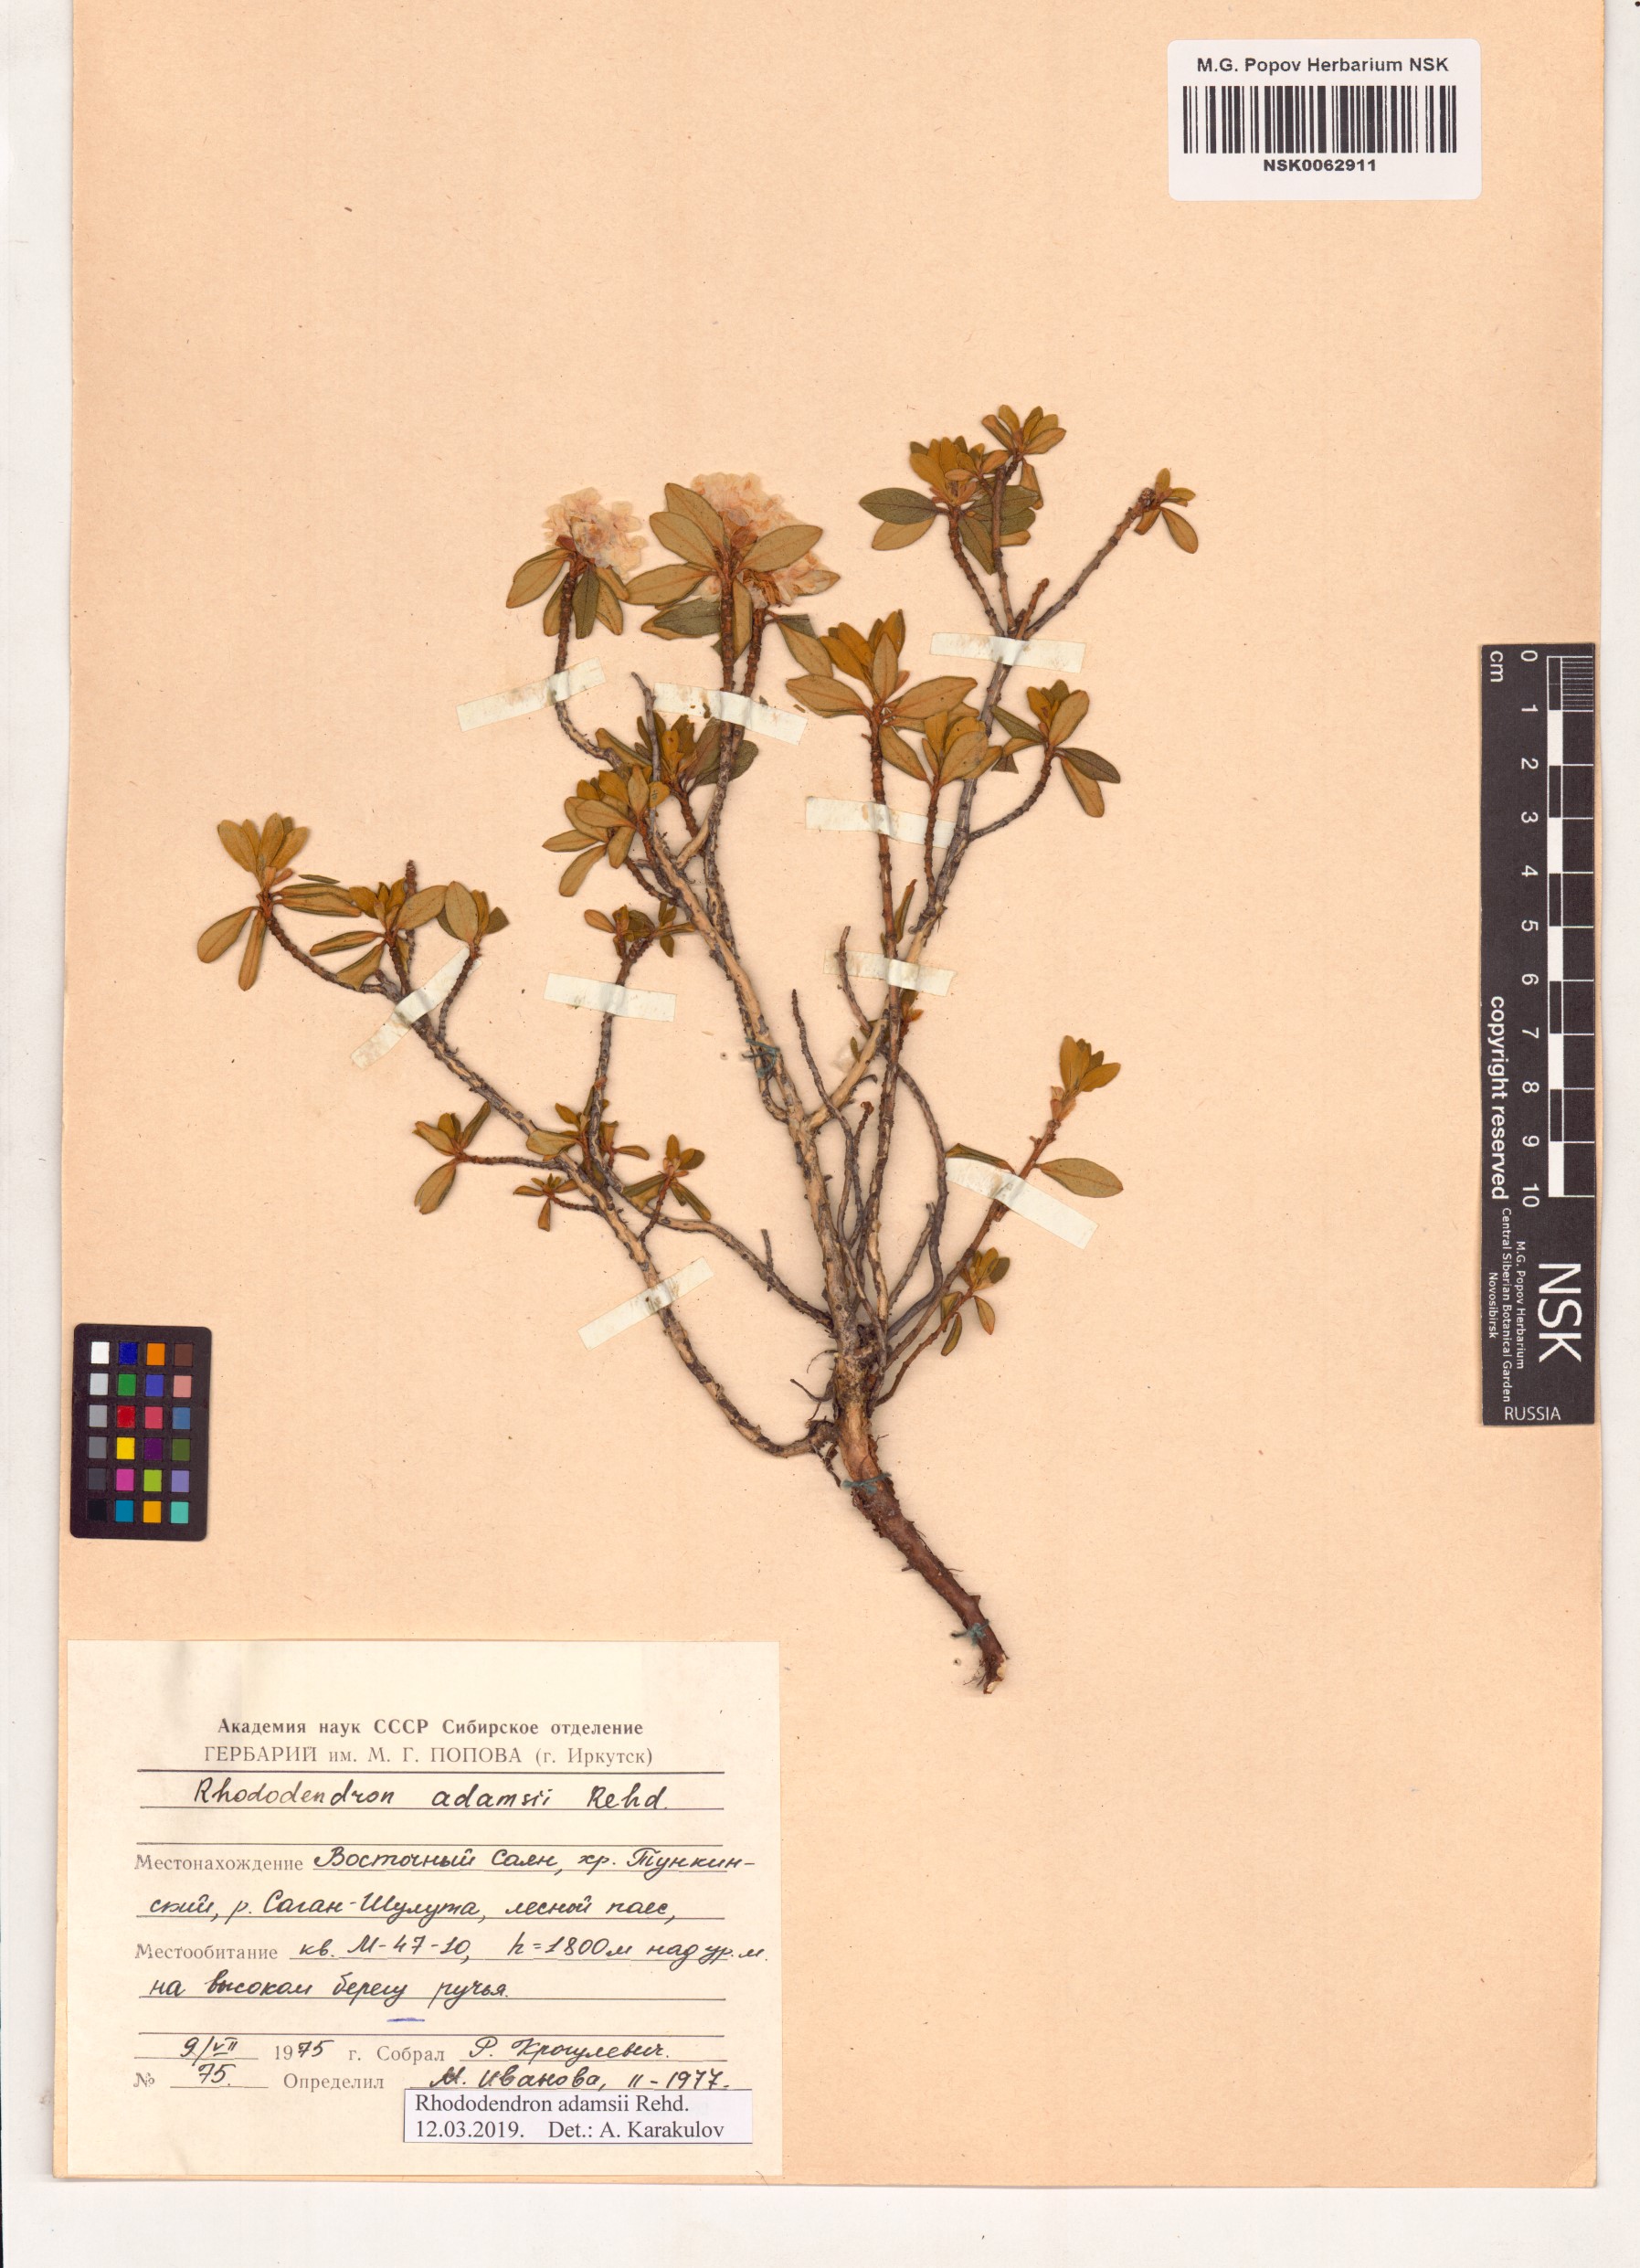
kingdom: Plantae
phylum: Tracheophyta
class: Magnoliopsida
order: Ericales
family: Ericaceae
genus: Rhododendron
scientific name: Rhododendron adamsii
